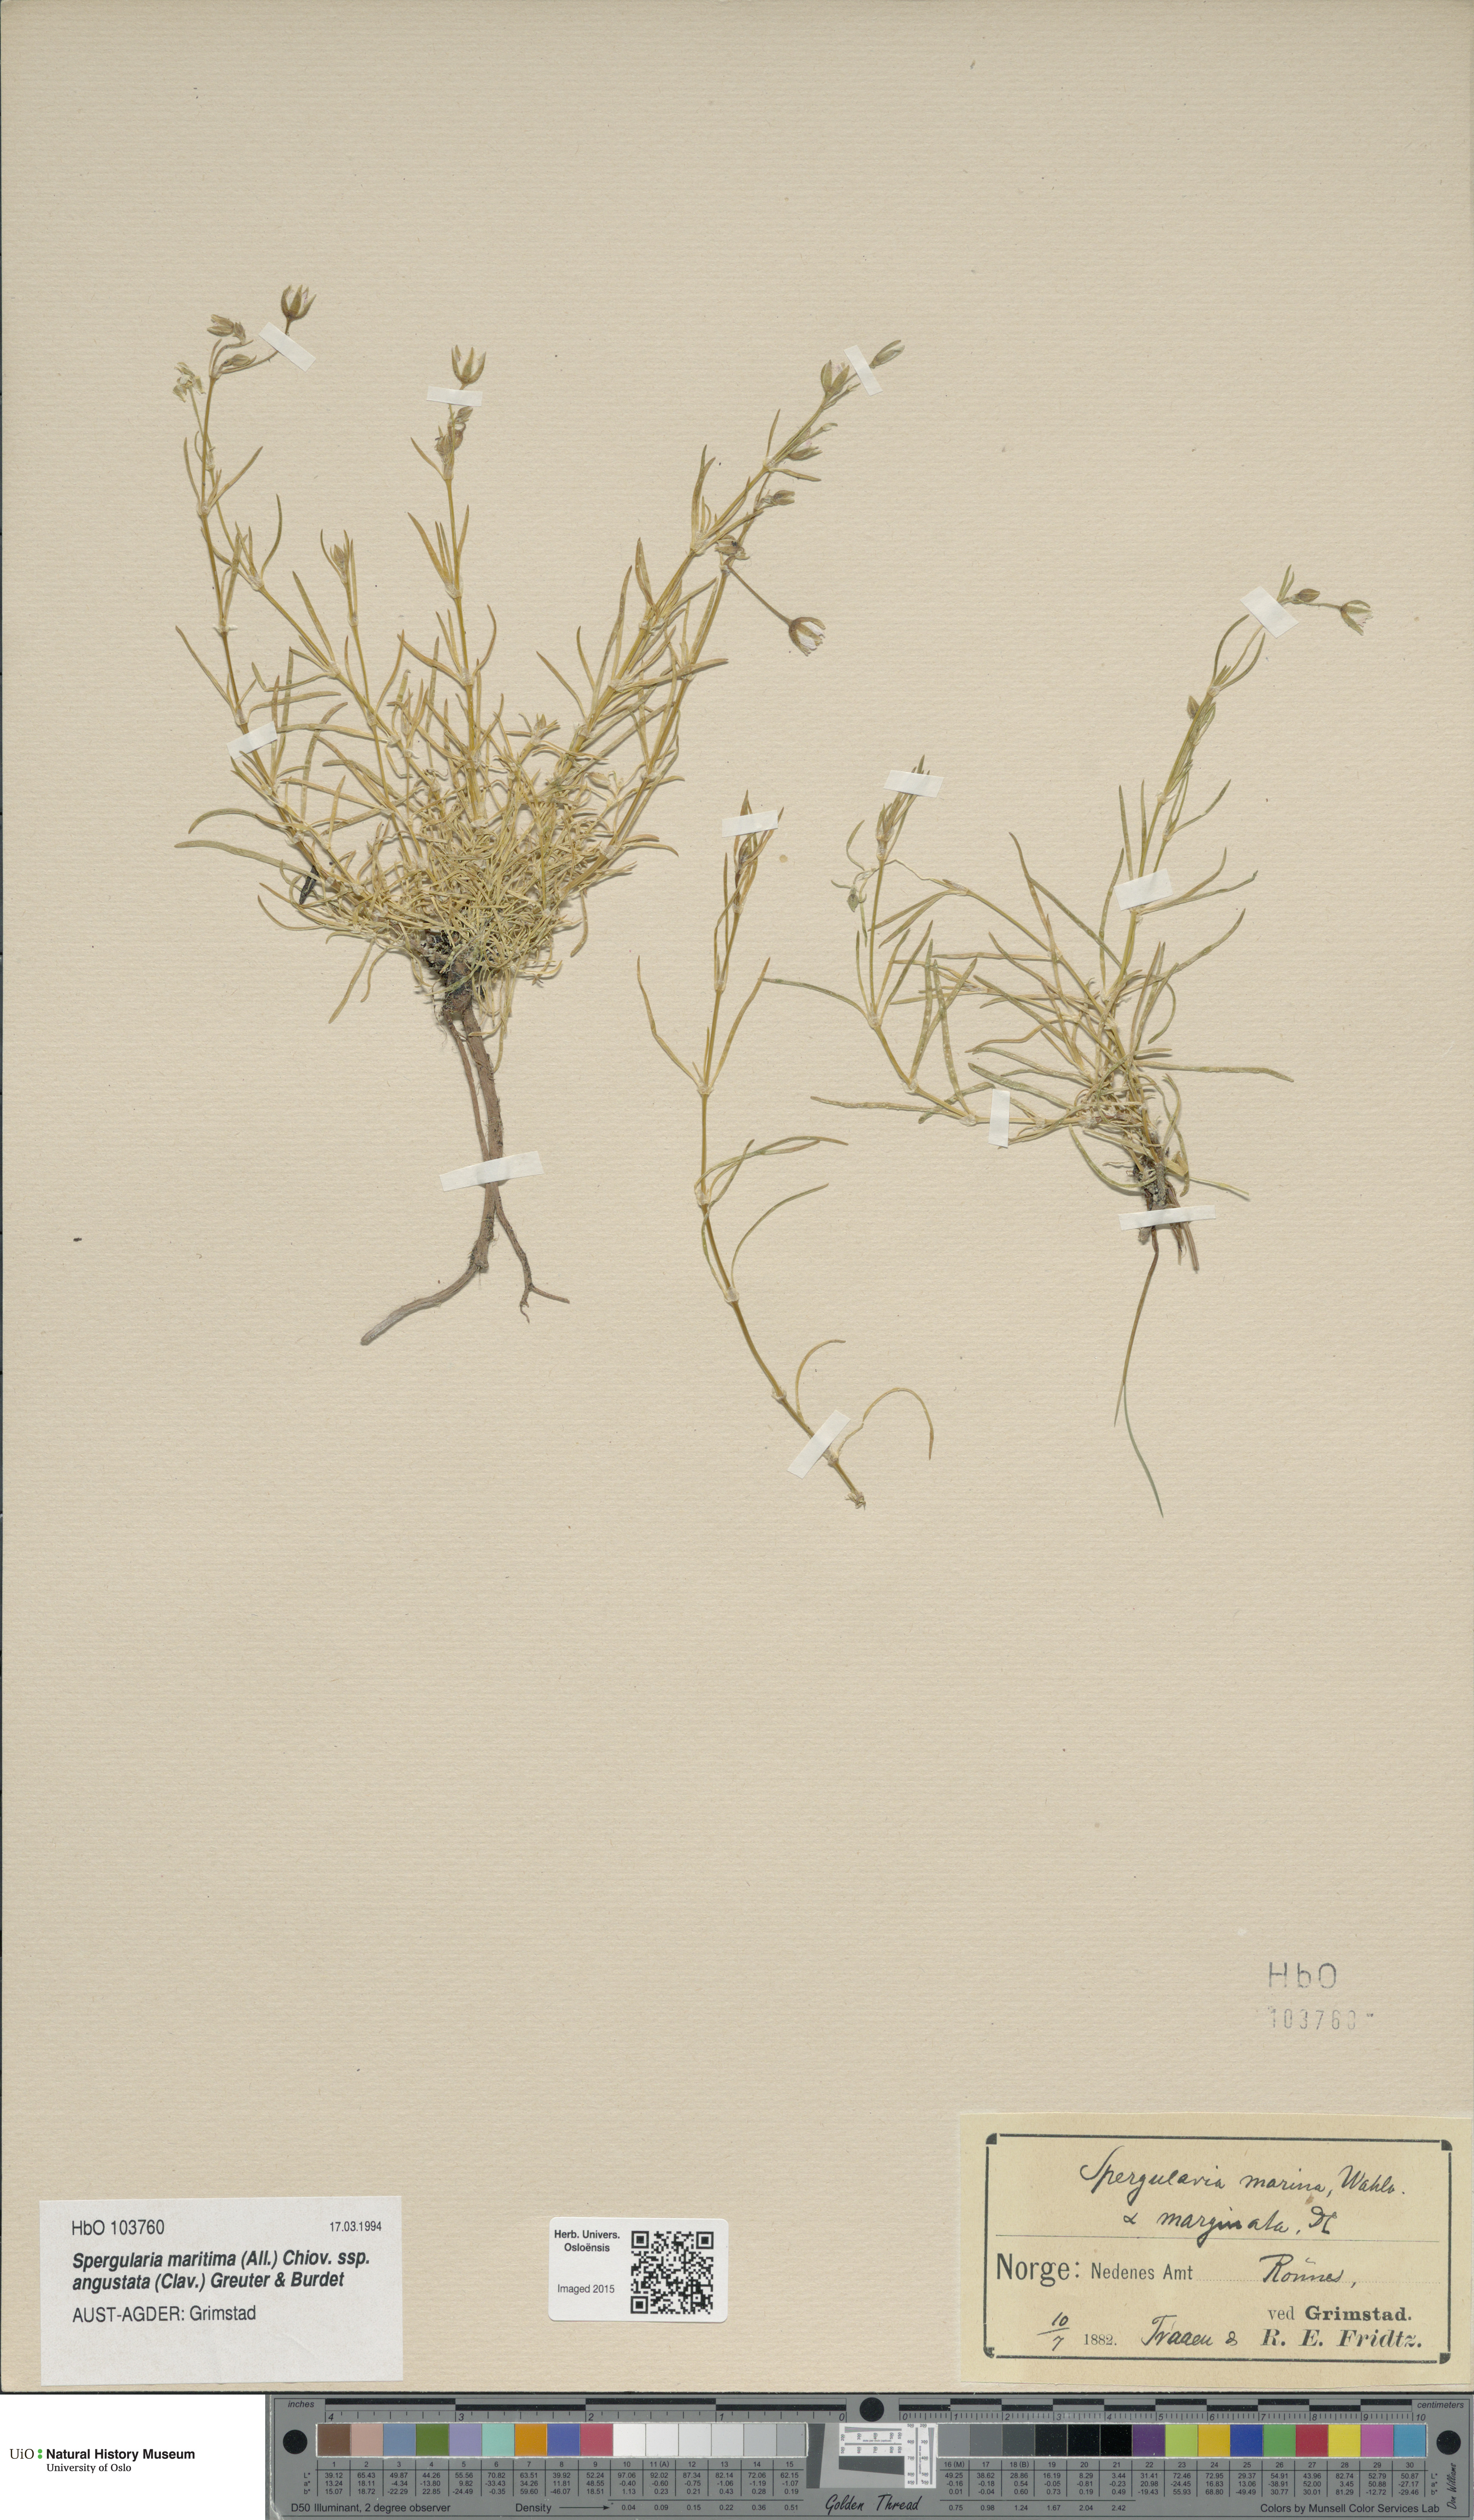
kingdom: Plantae
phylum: Tracheophyta
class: Magnoliopsida
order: Caryophyllales
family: Caryophyllaceae
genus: Spergularia
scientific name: Spergularia media
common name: Greater sea-spurrey
